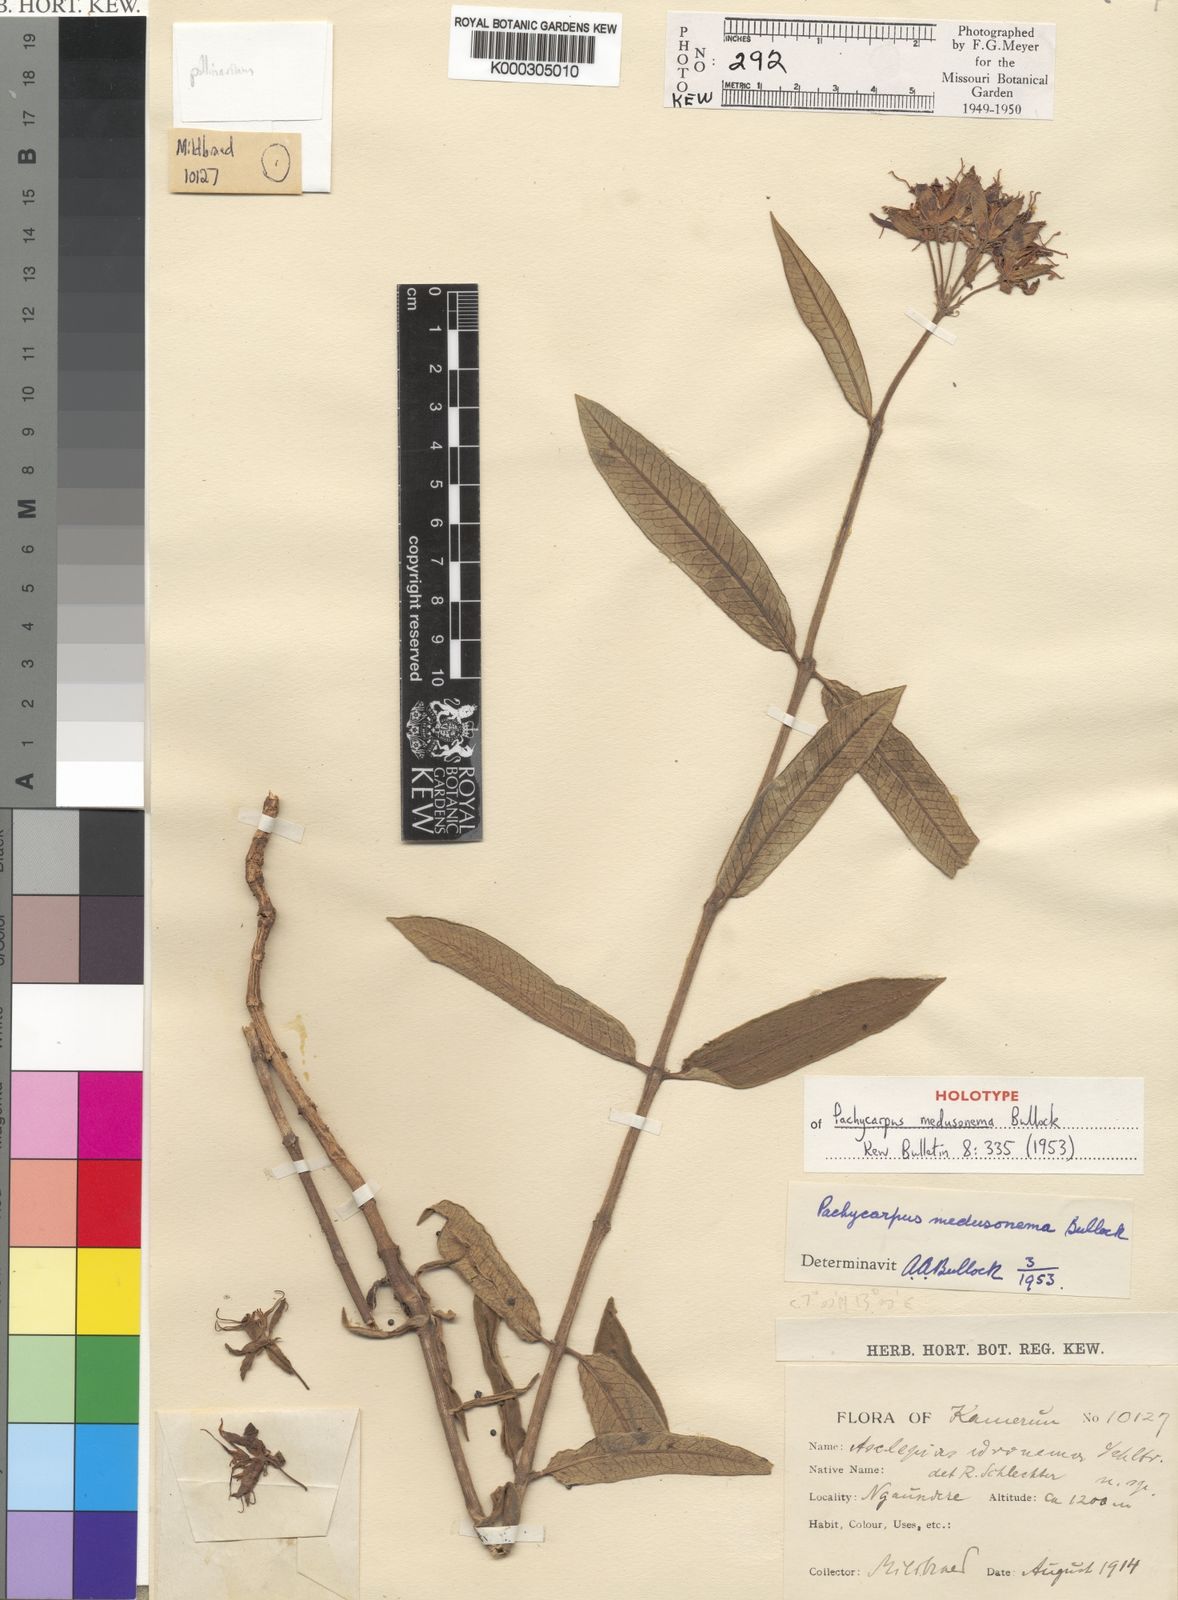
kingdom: Plantae
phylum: Tracheophyta
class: Magnoliopsida
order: Gentianales
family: Apocynaceae
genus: Pachycarpus
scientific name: Pachycarpus medusonema
